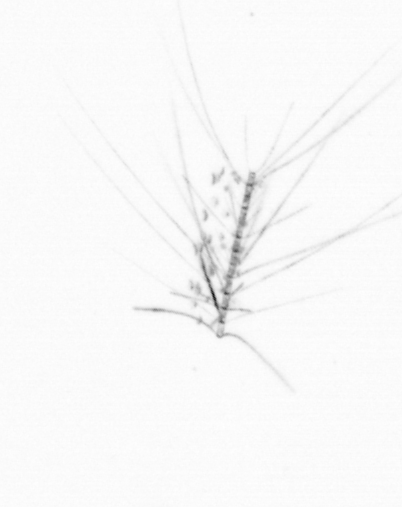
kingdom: Chromista
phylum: Ochrophyta
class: Bacillariophyceae
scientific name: Bacillariophyceae
